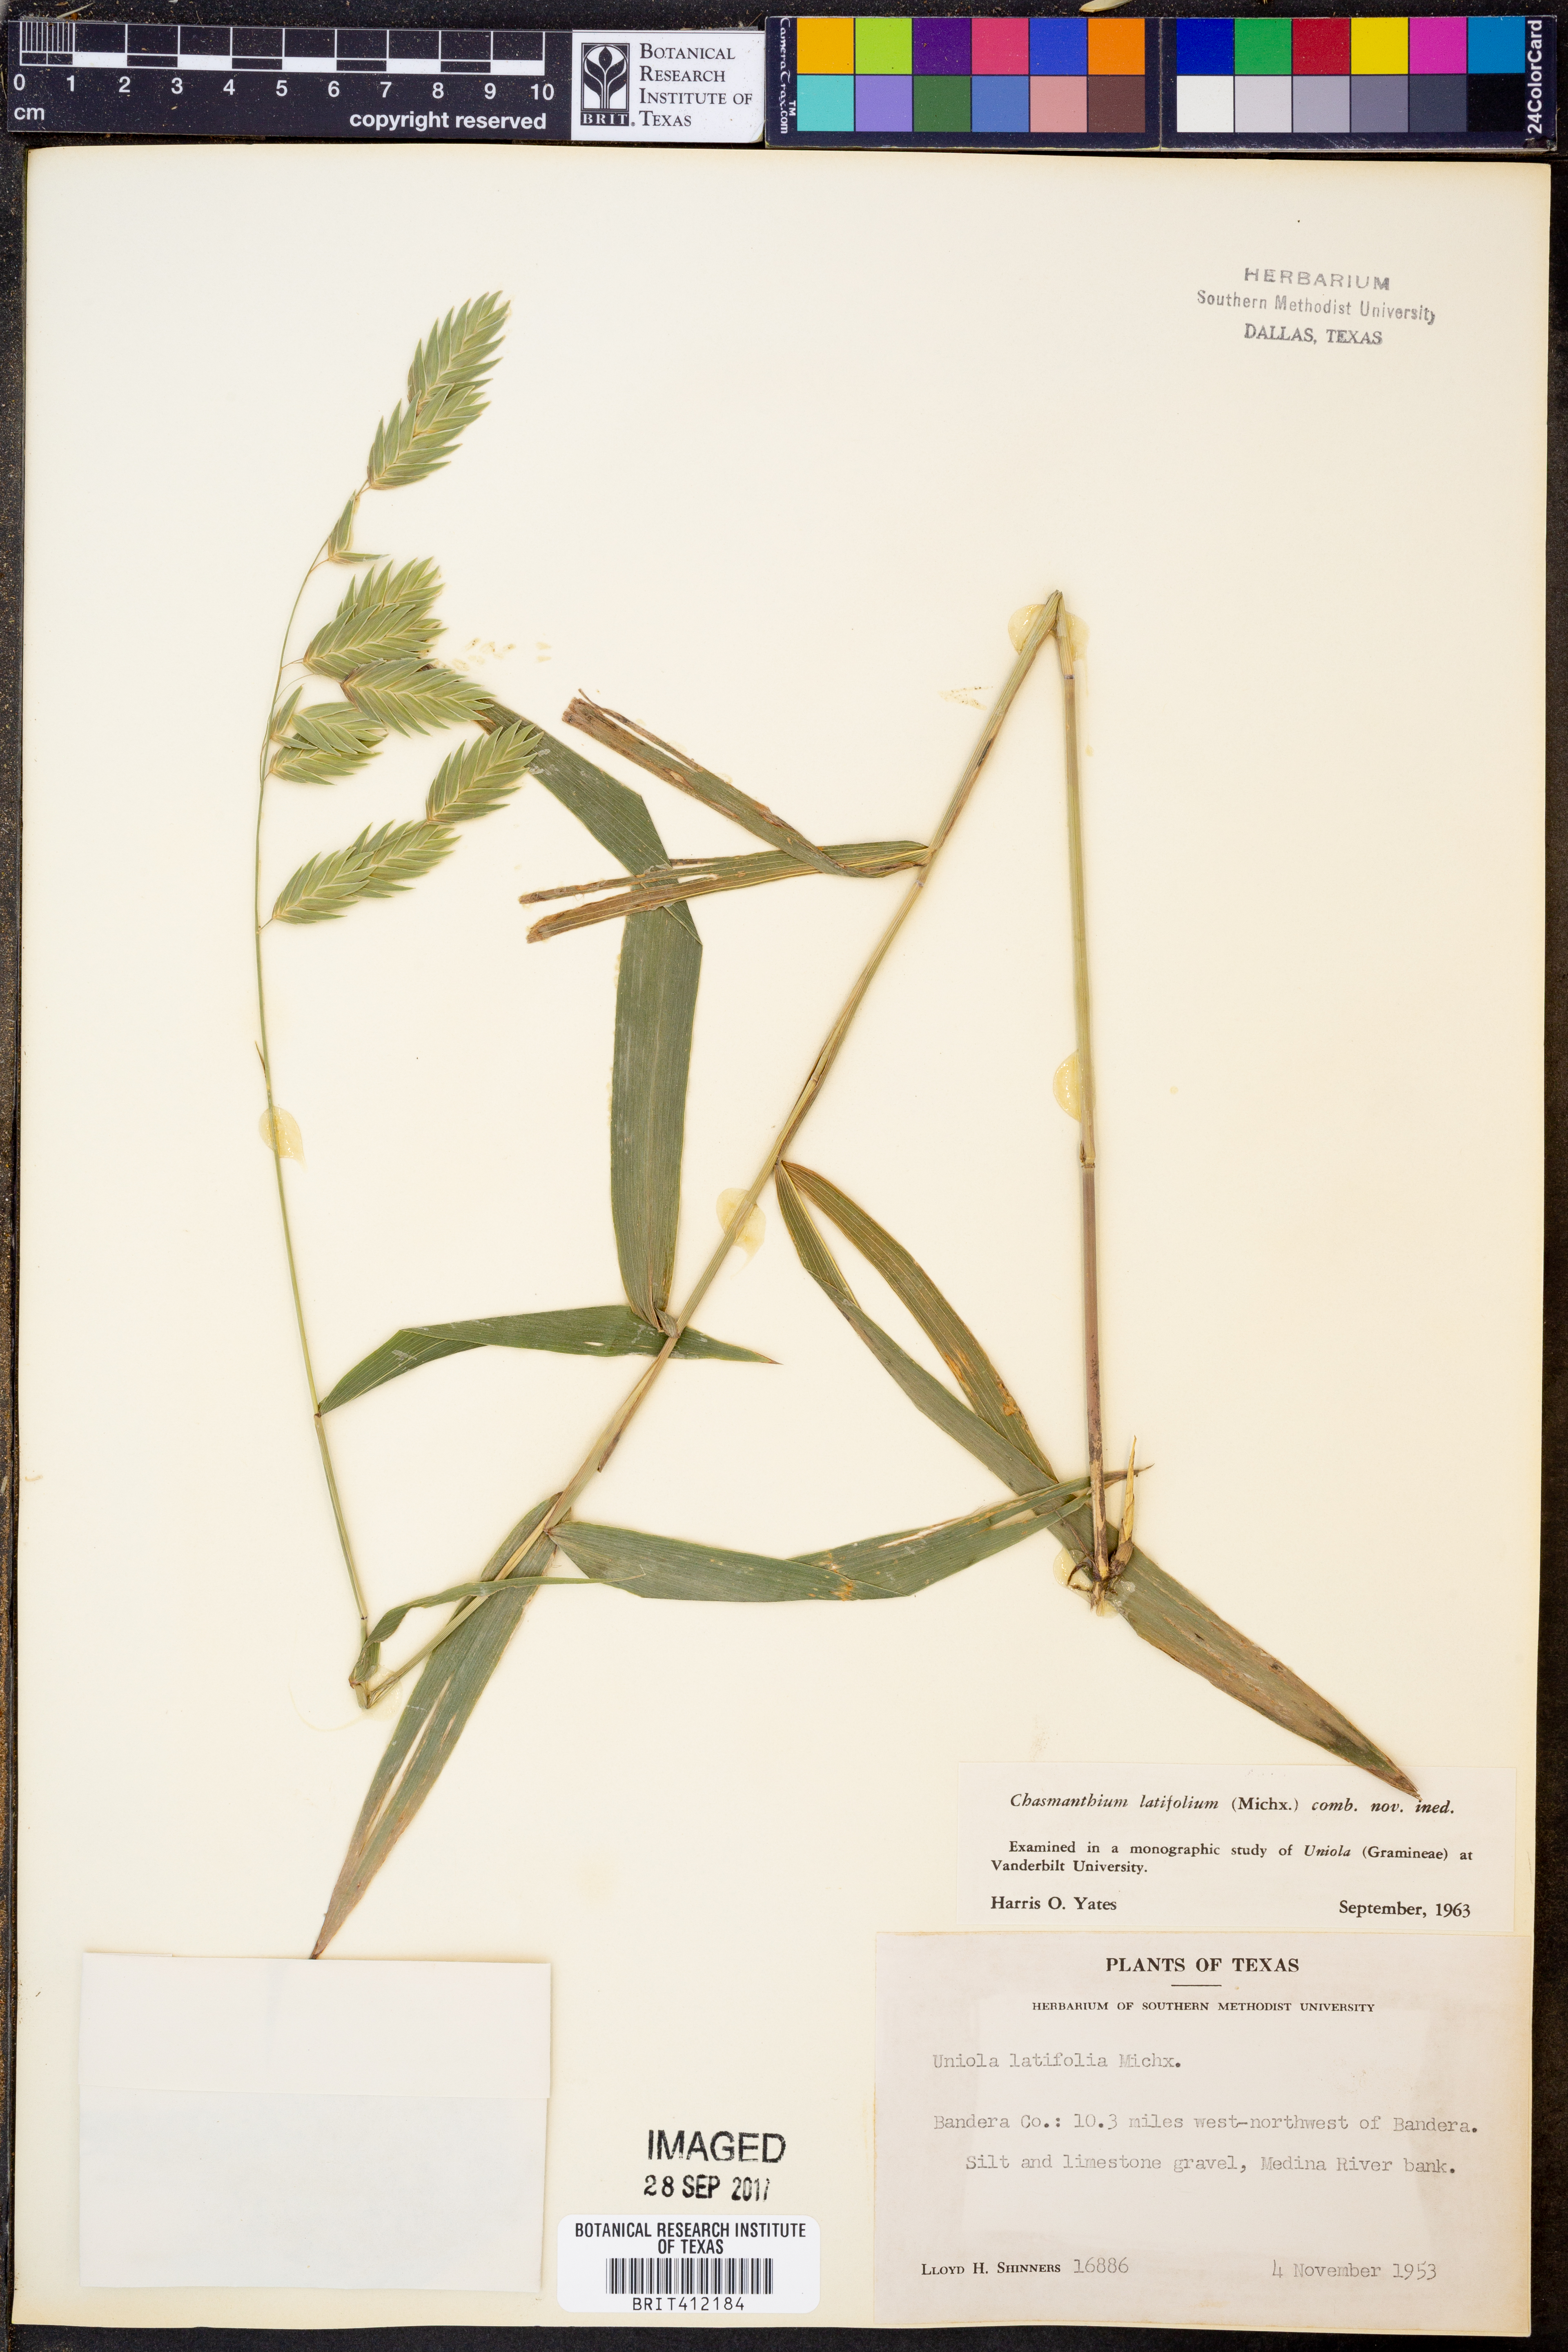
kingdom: Plantae
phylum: Tracheophyta
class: Liliopsida
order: Poales
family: Poaceae
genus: Chasmanthium
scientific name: Chasmanthium latifolium
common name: Broad-leaved chasmanthium
